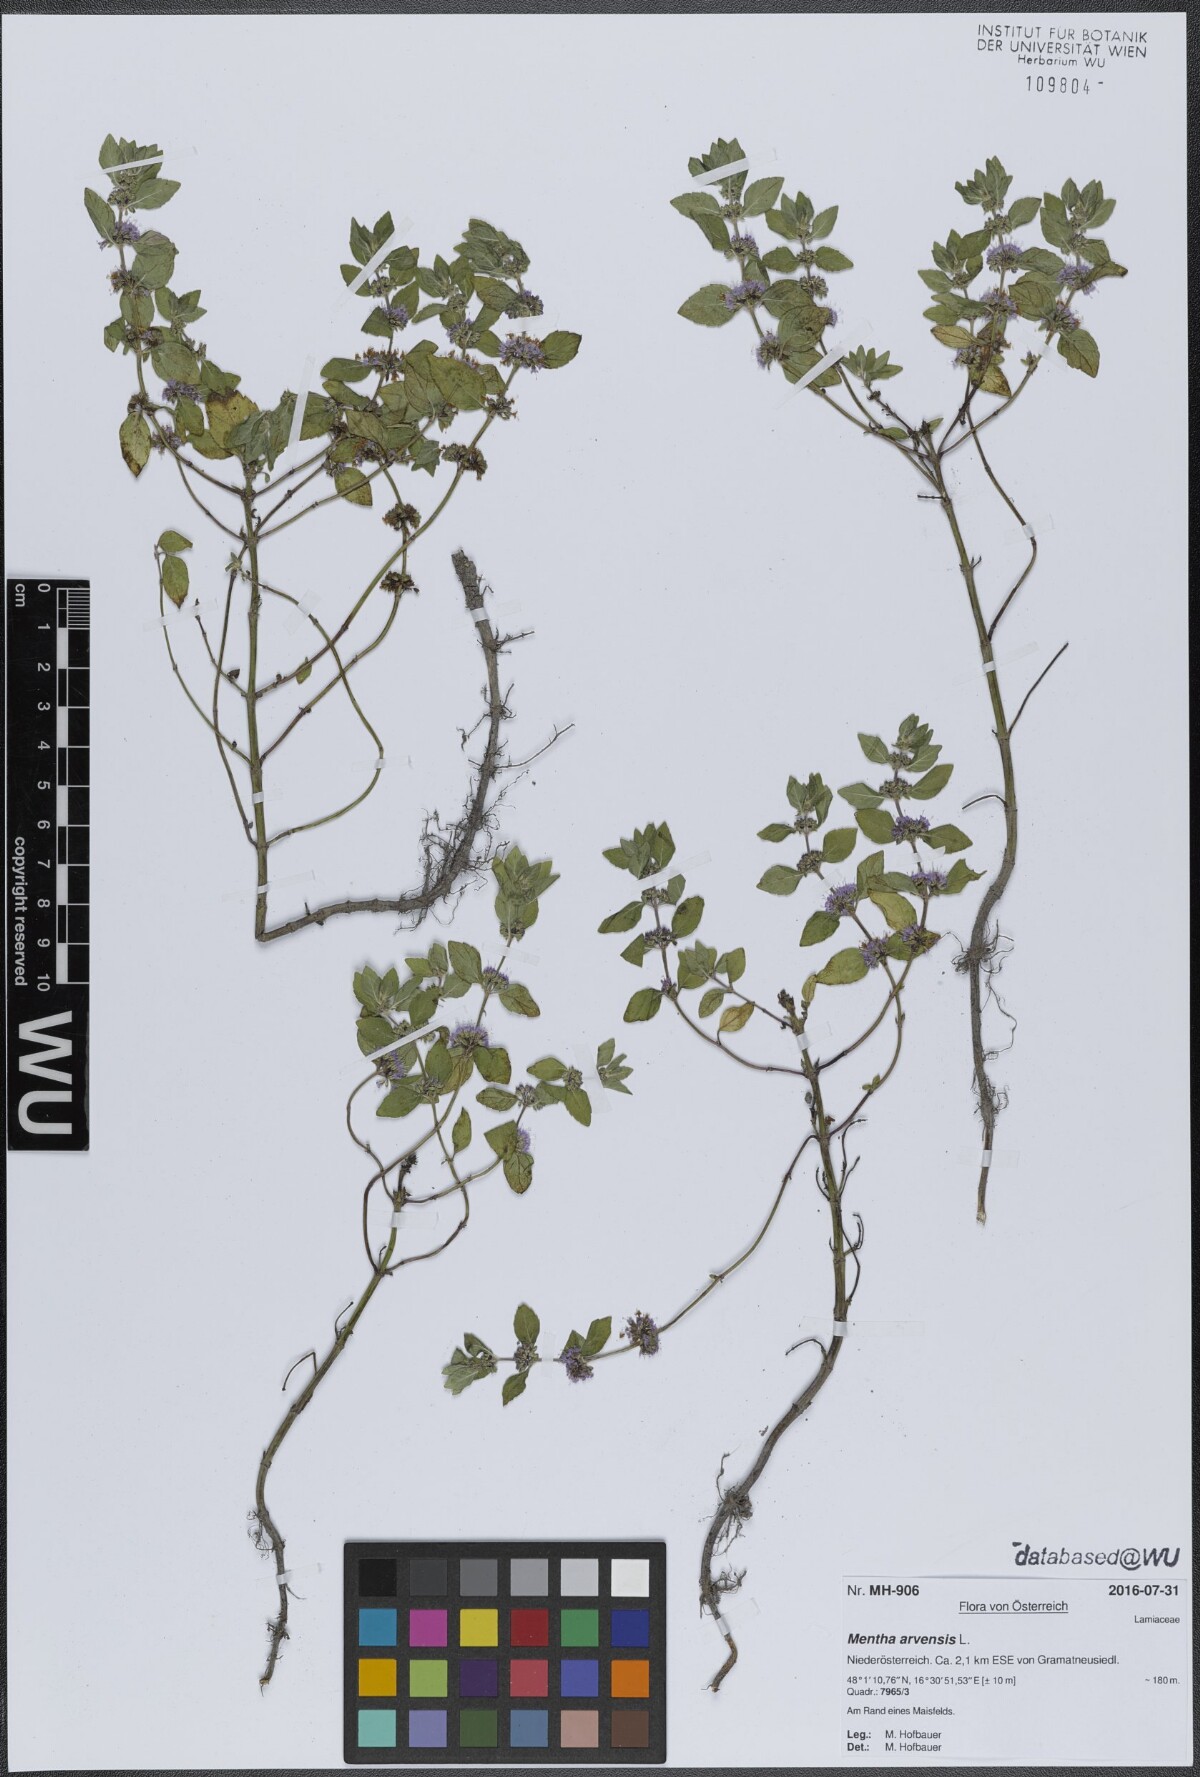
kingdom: Plantae
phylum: Tracheophyta
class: Magnoliopsida
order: Lamiales
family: Lamiaceae
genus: Mentha
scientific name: Mentha arvensis
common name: Corn mint
